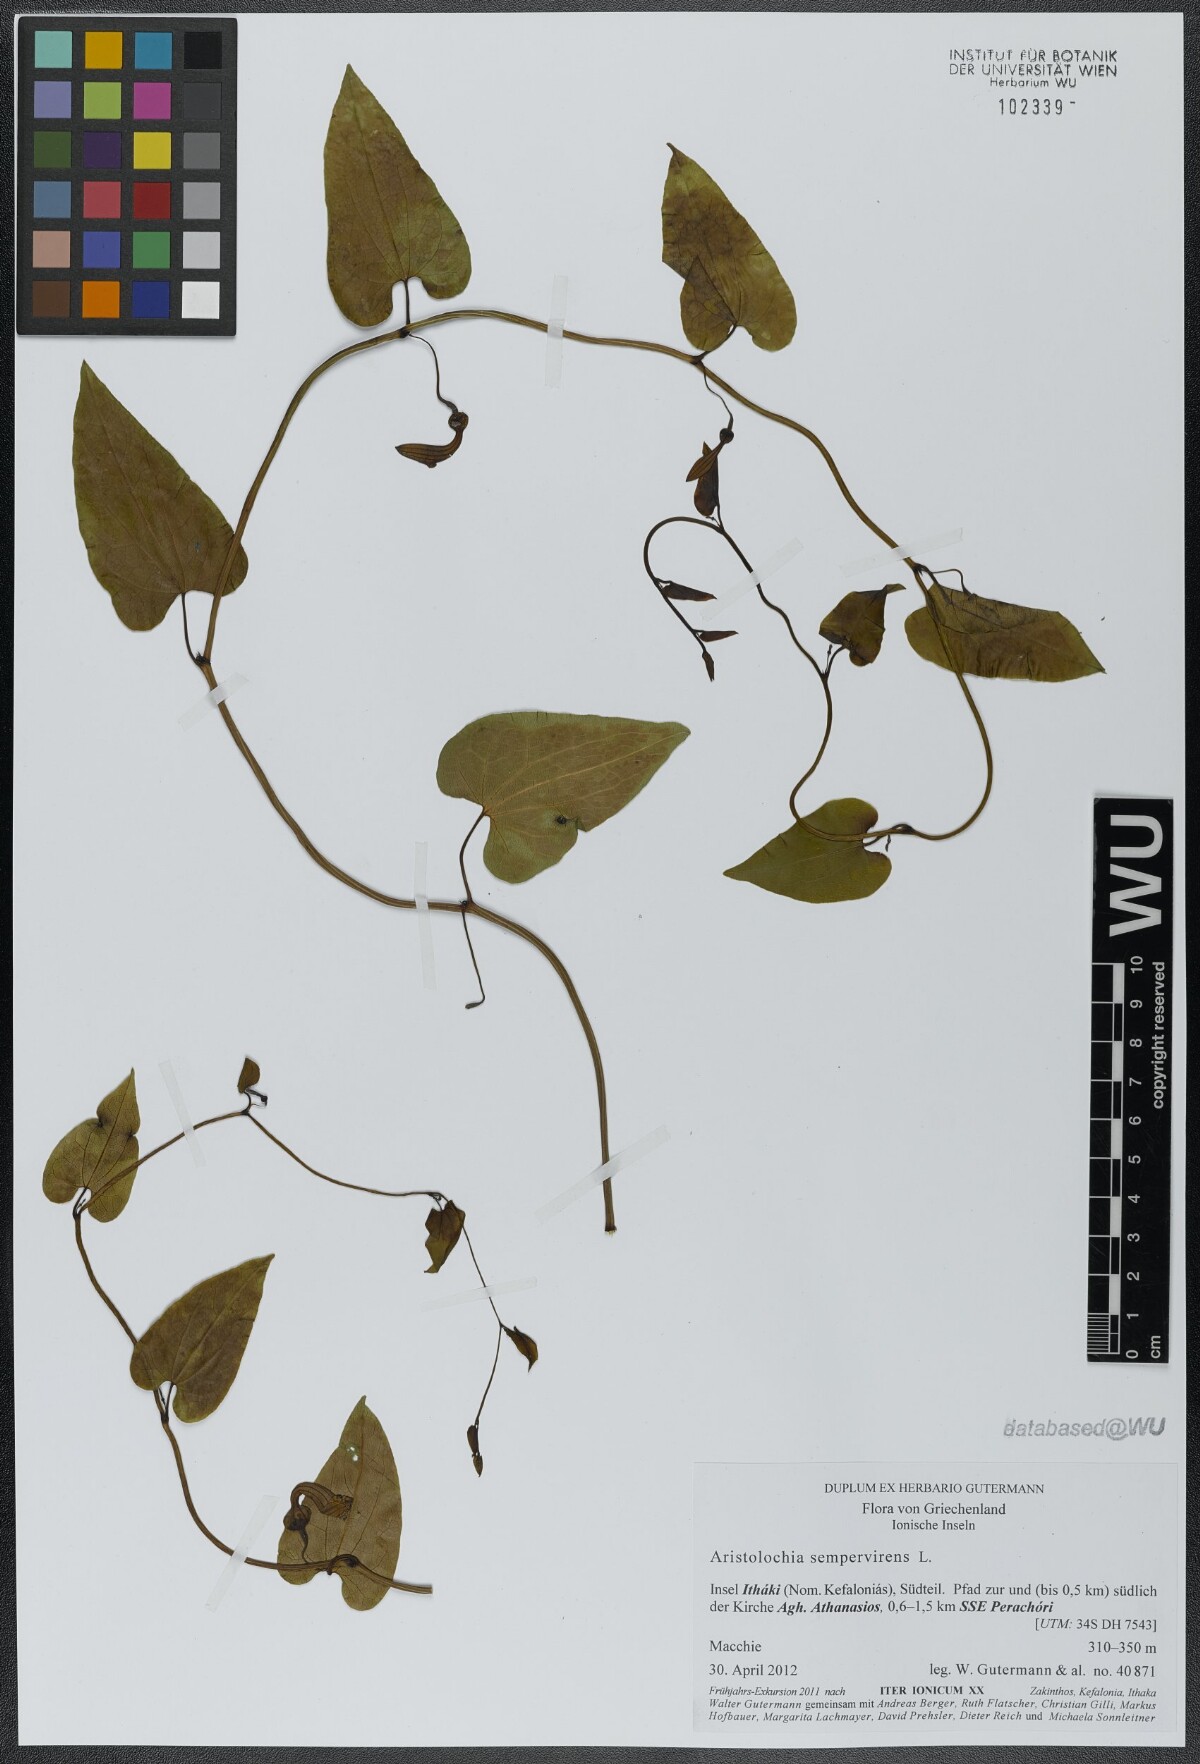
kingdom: Plantae
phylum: Tracheophyta
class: Magnoliopsida
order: Piperales
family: Aristolochiaceae
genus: Aristolochia
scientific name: Aristolochia sempervirens
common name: Long birthwort
